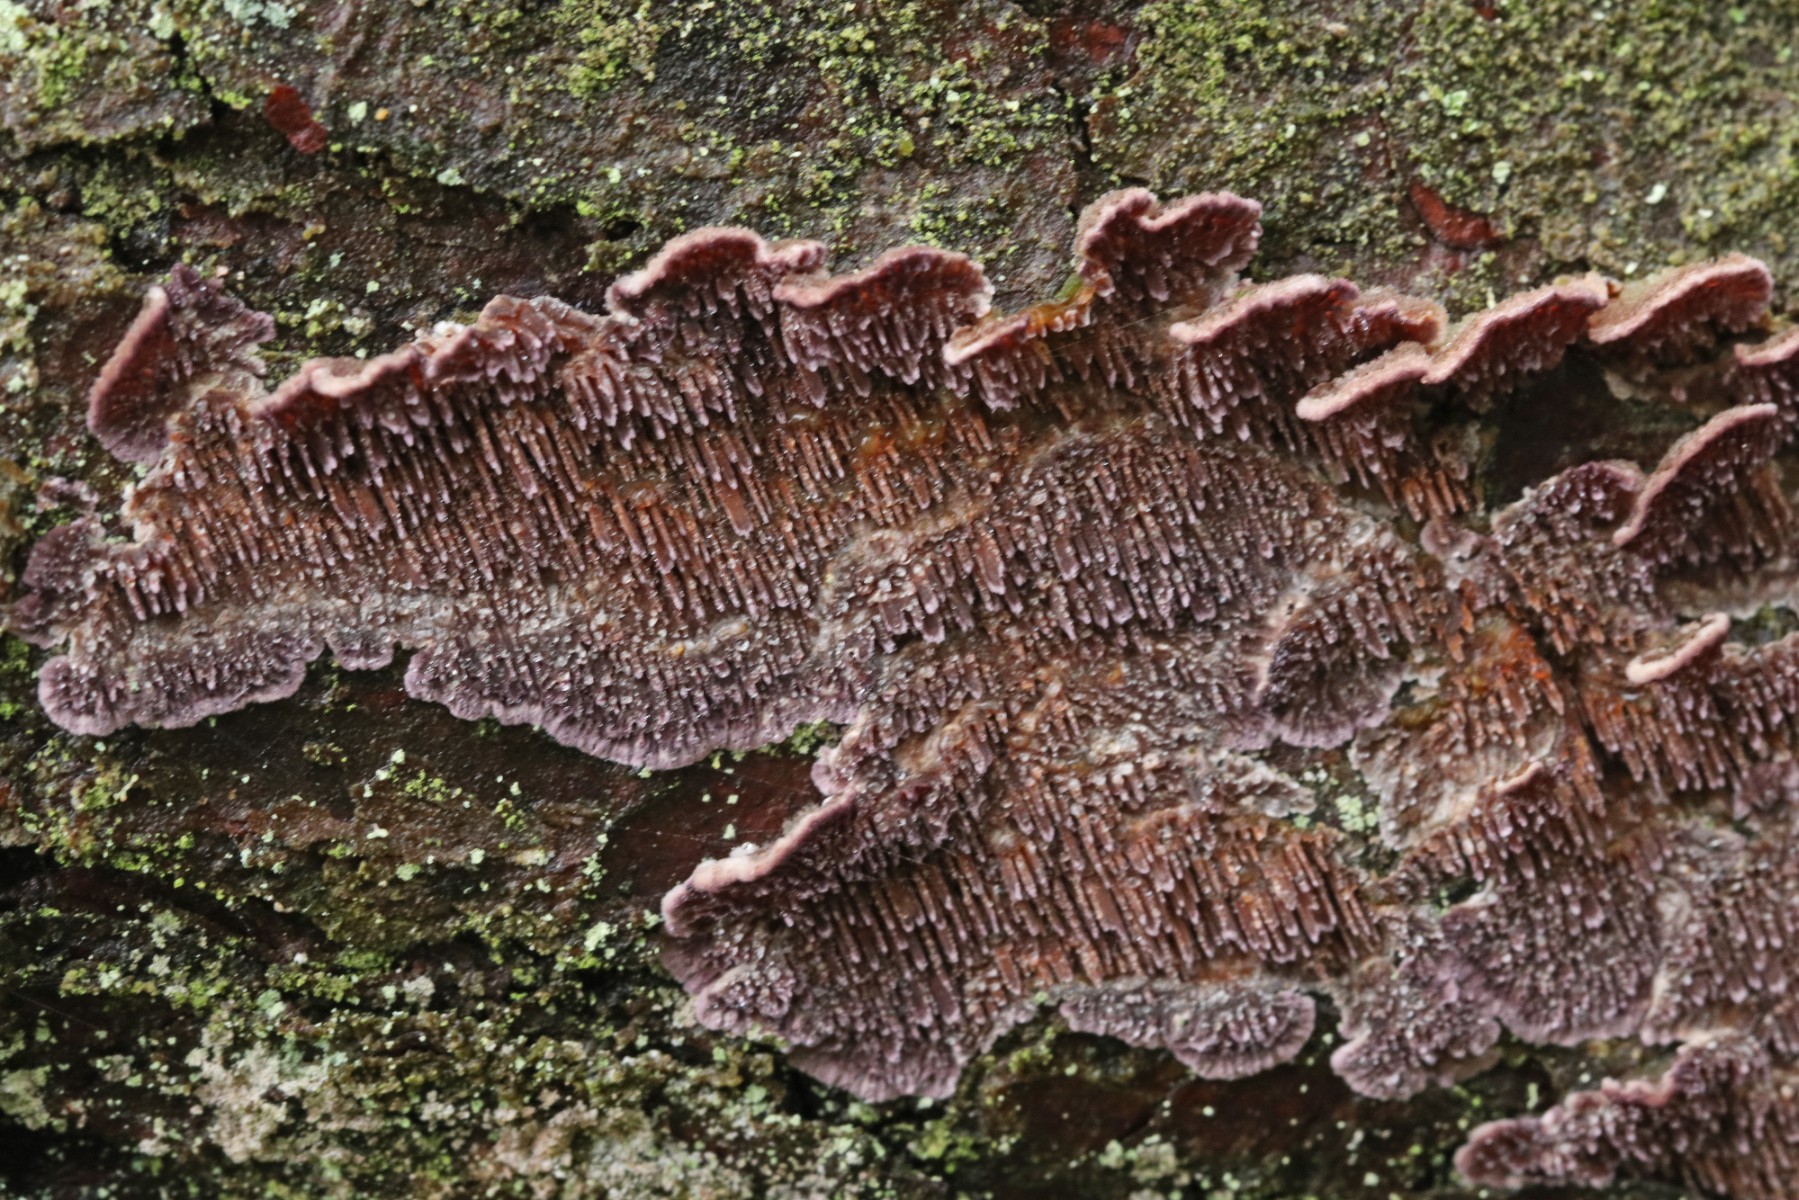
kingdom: Fungi
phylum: Basidiomycota
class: Agaricomycetes
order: Hymenochaetales
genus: Trichaptum
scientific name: Trichaptum fuscoviolaceum
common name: tandet violporesvamp
